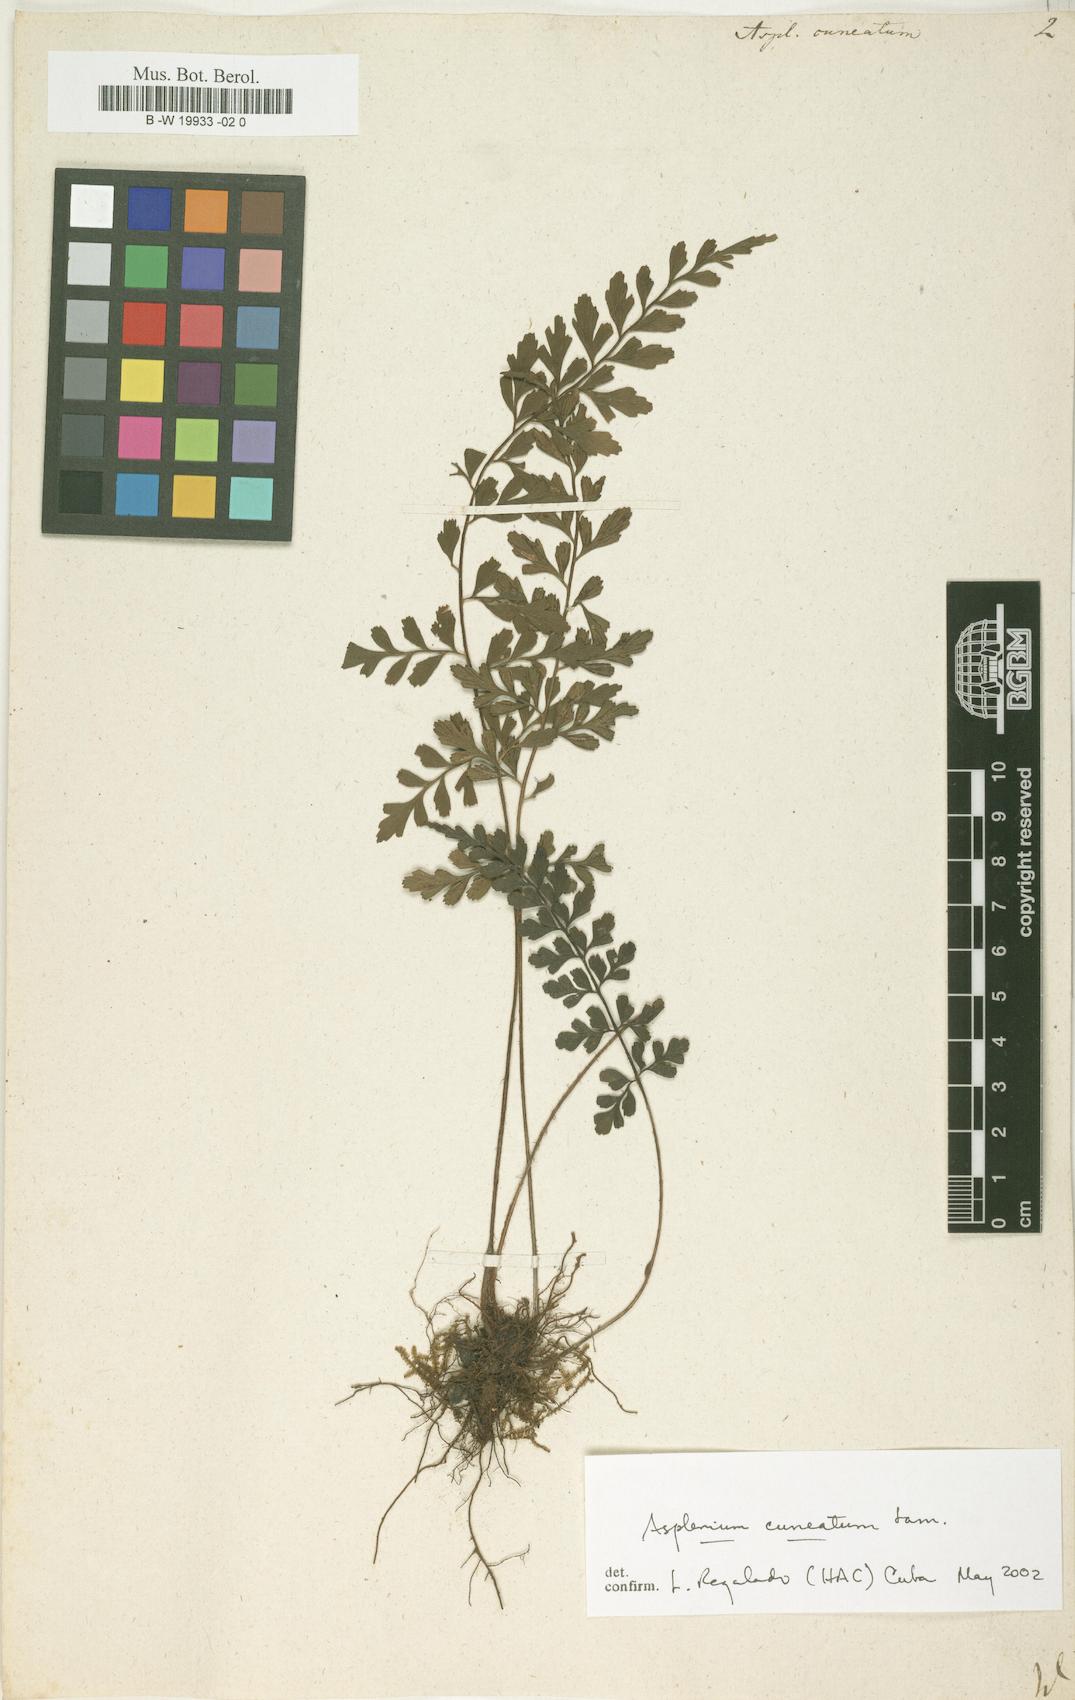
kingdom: Plantae
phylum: Tracheophyta
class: Polypodiopsida
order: Polypodiales
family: Aspleniaceae
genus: Asplenium
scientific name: Asplenium cuneatum
